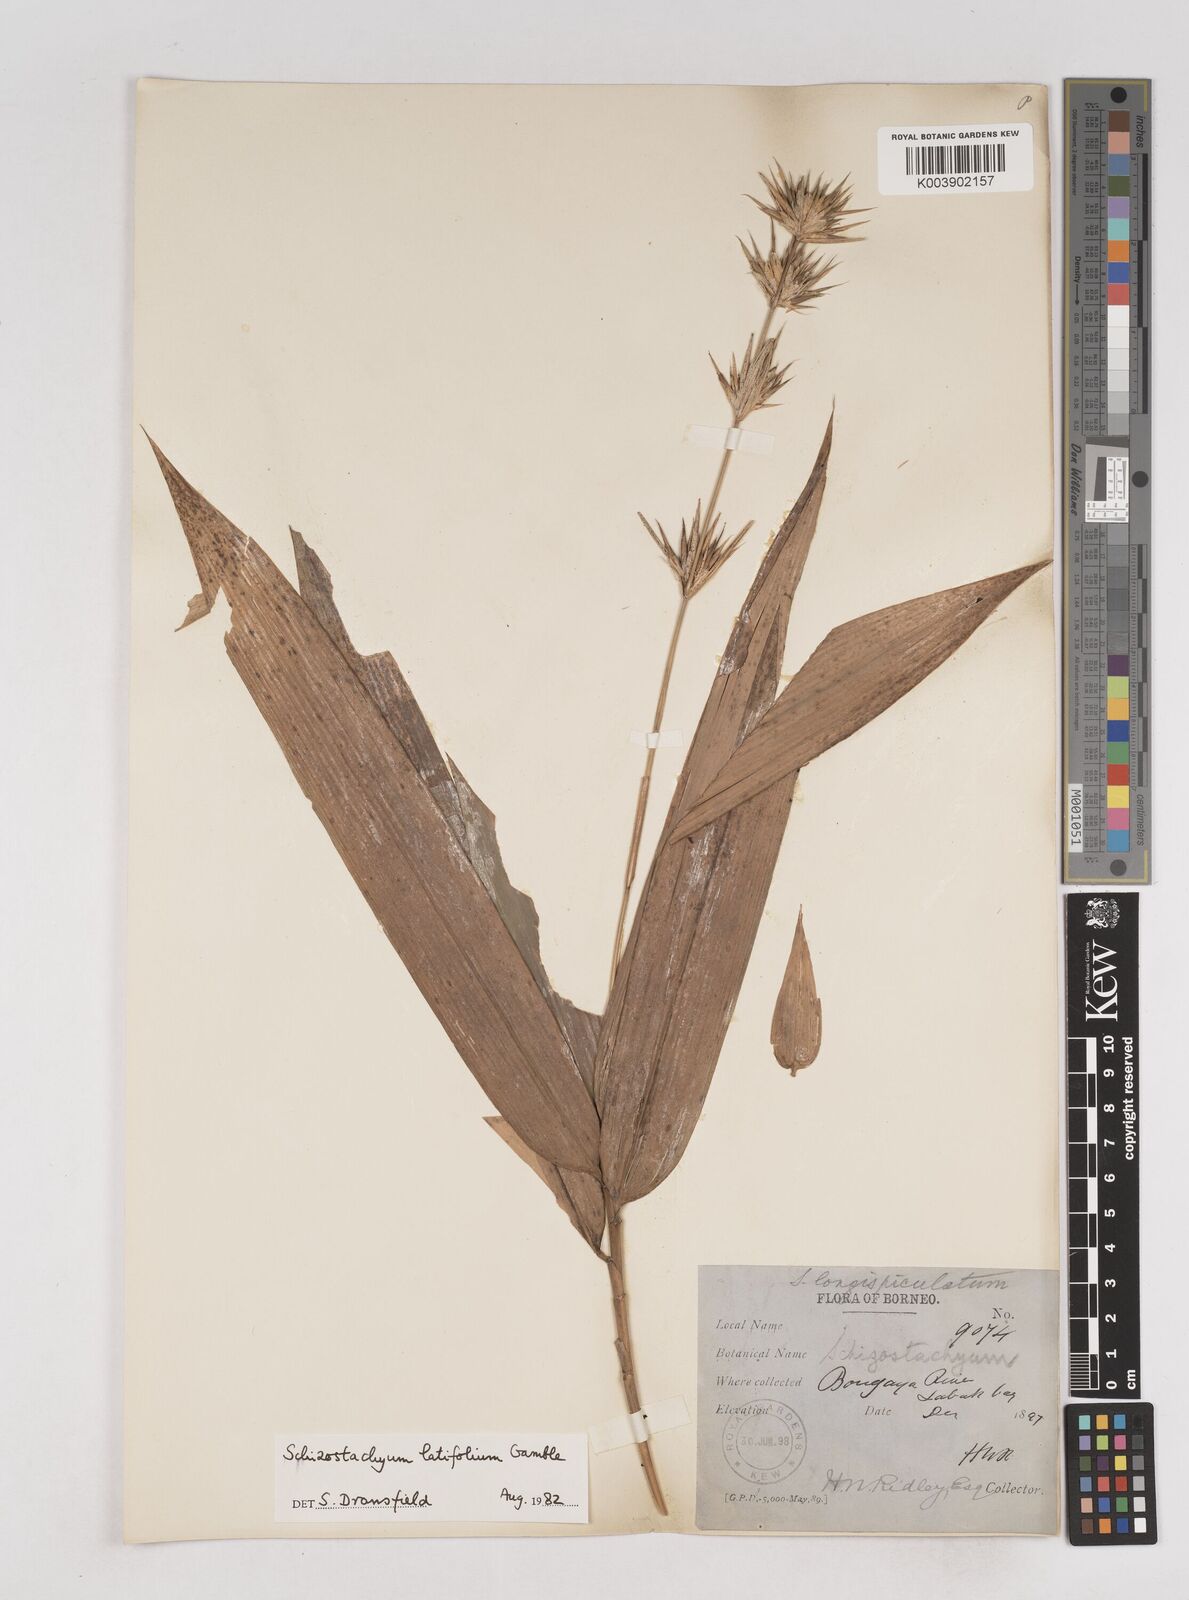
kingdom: Plantae
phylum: Tracheophyta
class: Liliopsida
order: Poales
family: Poaceae
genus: Schizostachyum
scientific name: Schizostachyum blumei
